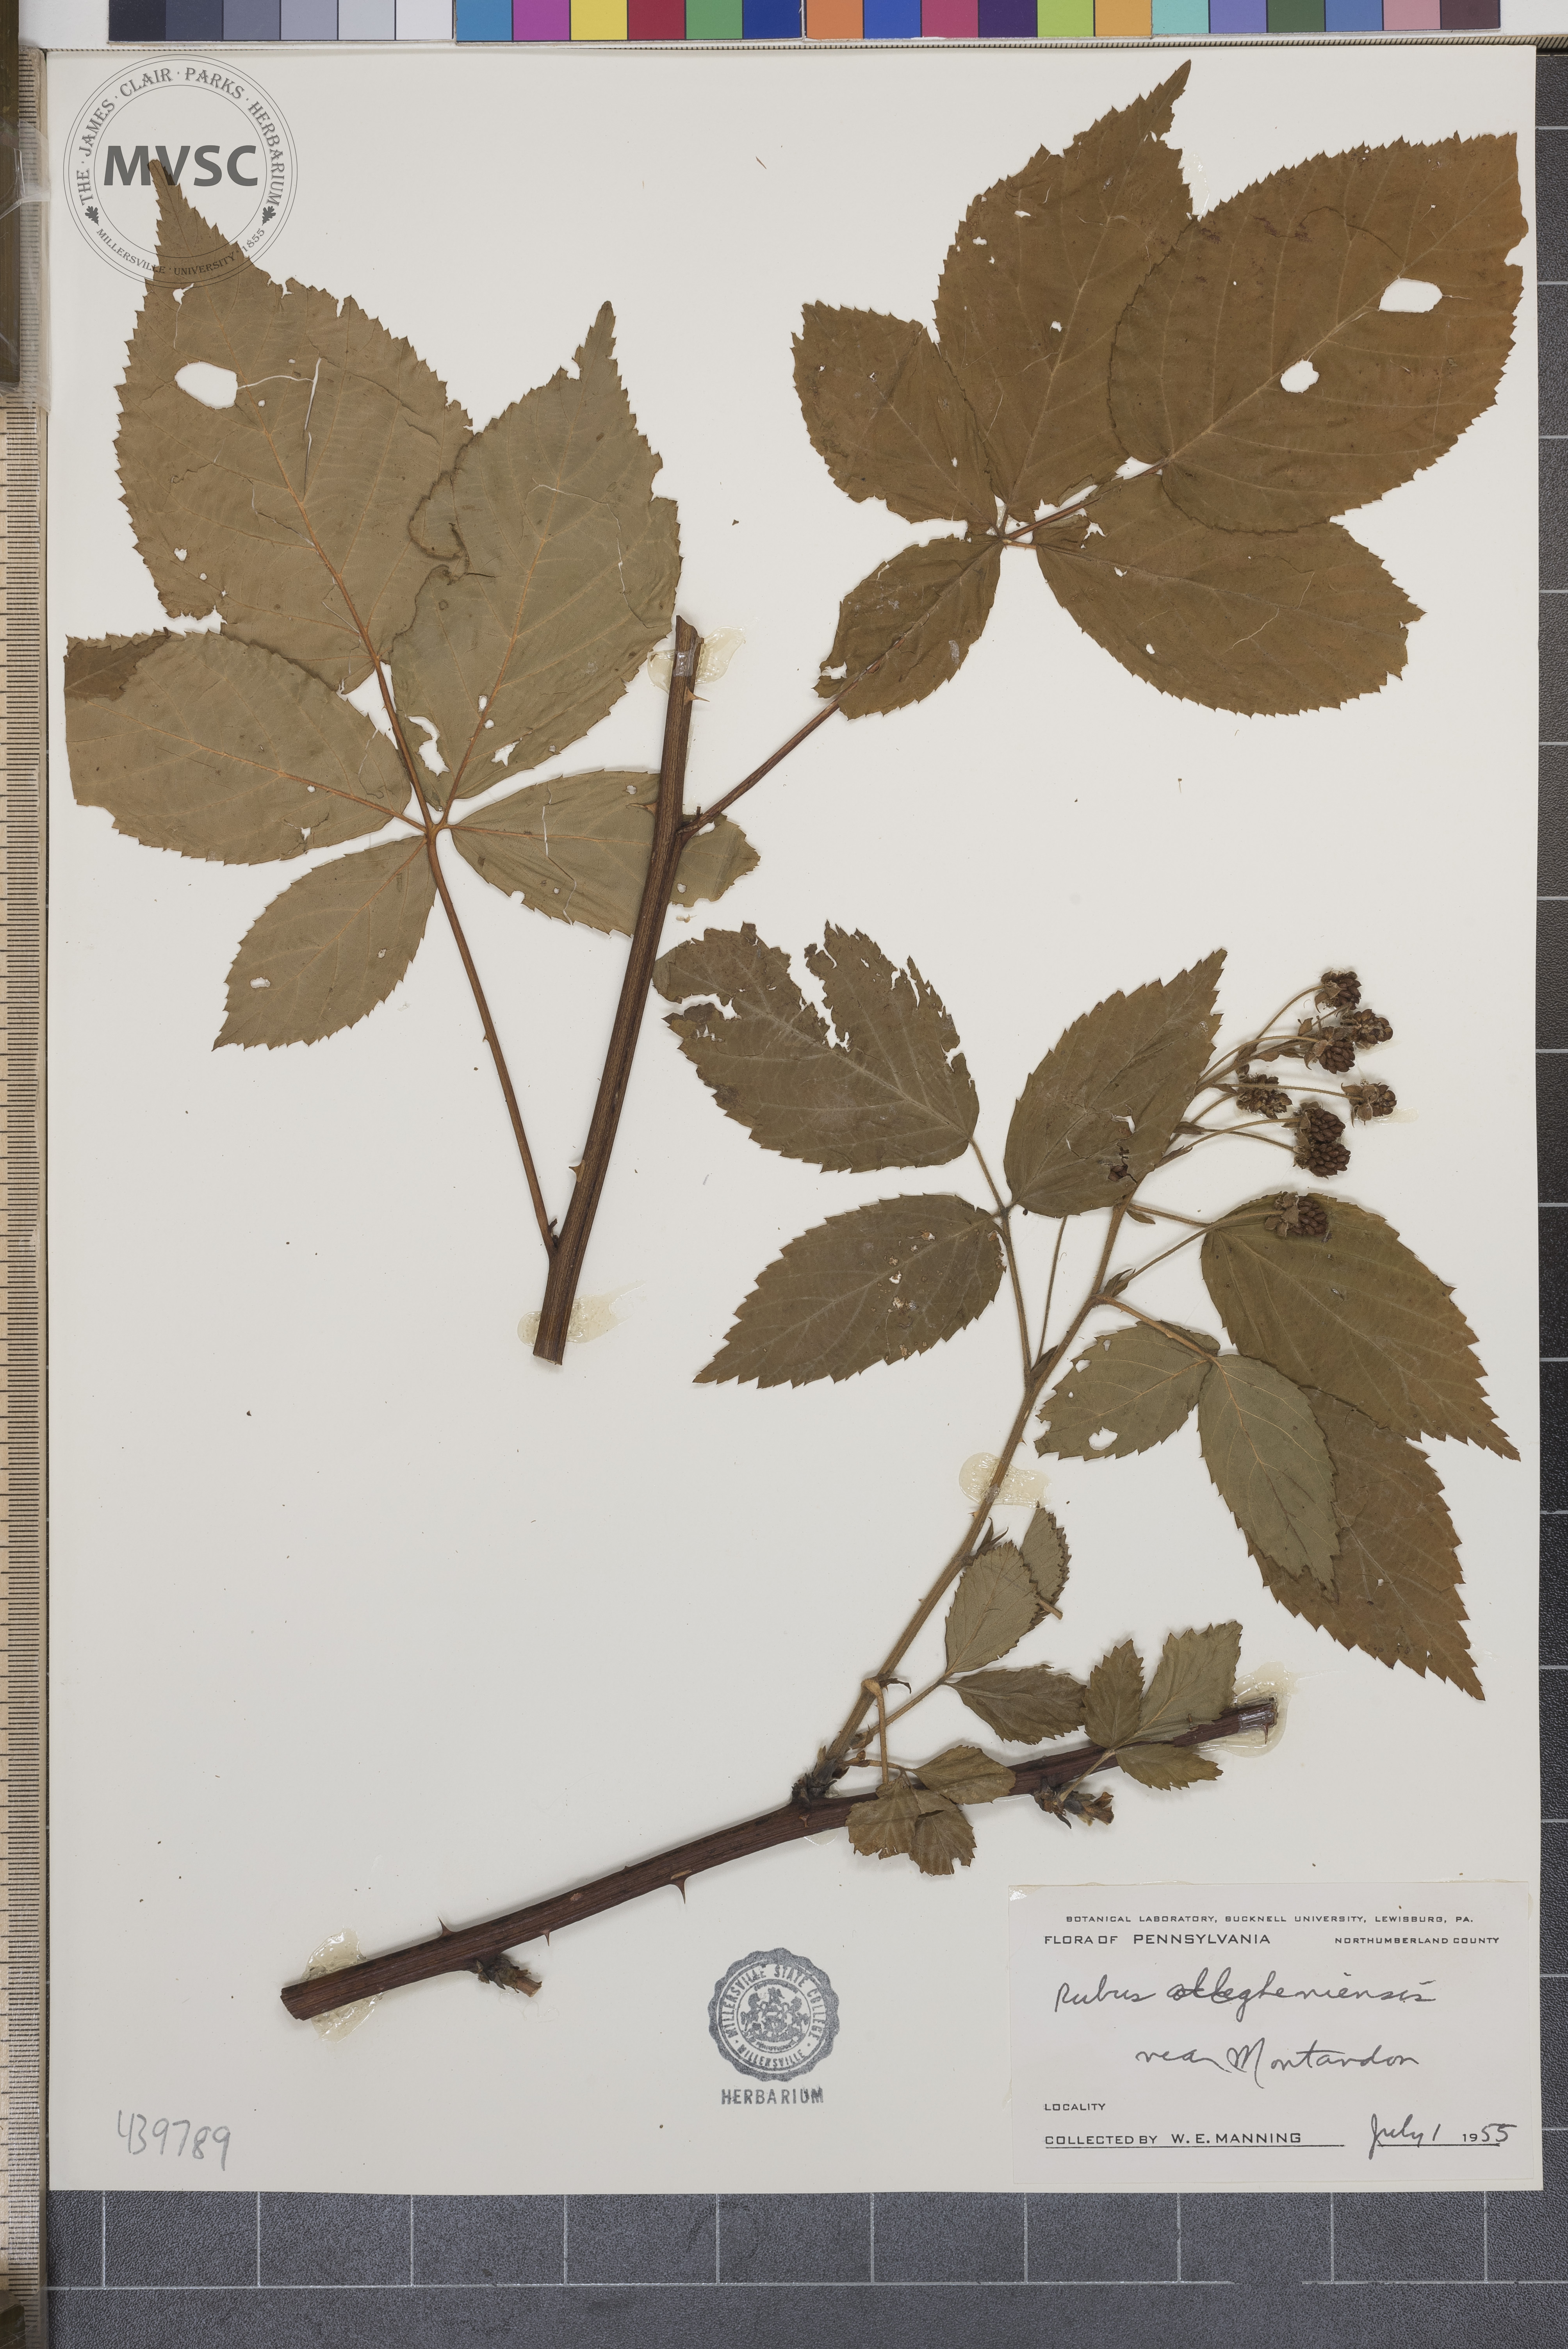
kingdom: Plantae
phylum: Tracheophyta
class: Magnoliopsida
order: Rosales
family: Rosaceae
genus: Rubus
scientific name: Rubus allegheniensis
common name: Allegheny blackberry
